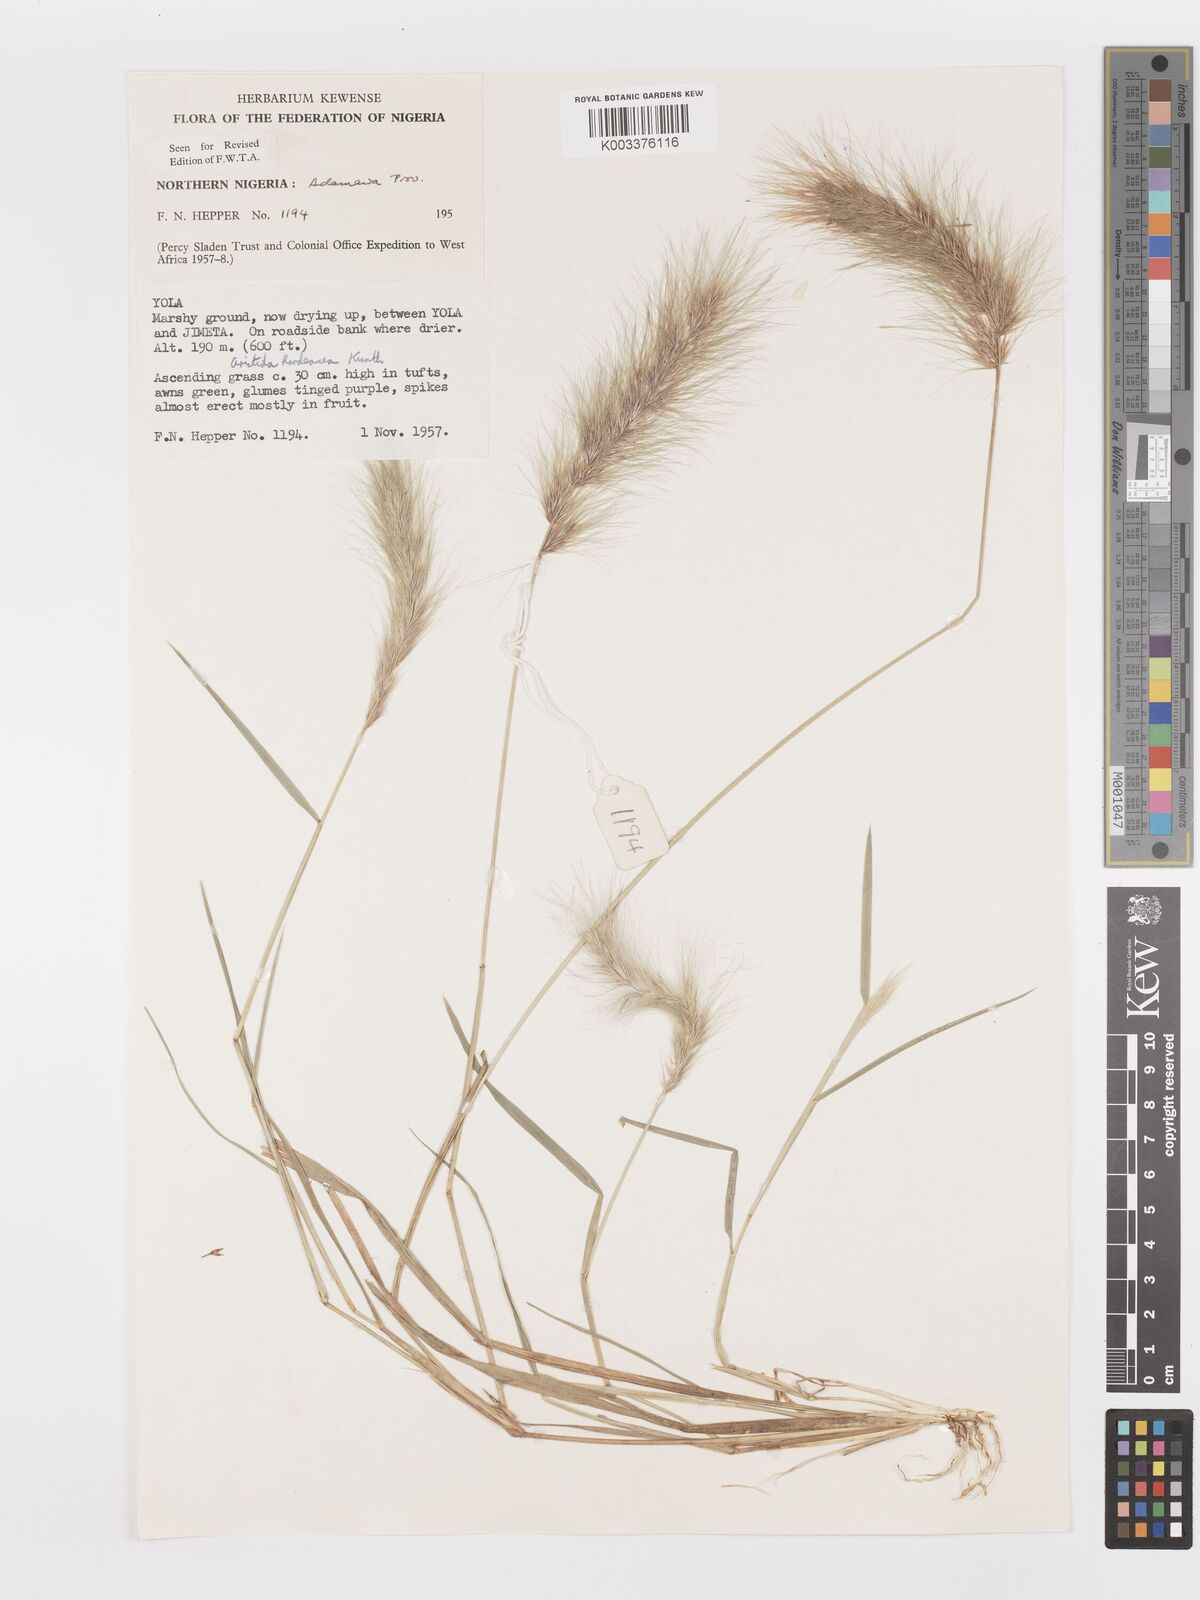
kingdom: Plantae
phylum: Tracheophyta
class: Liliopsida
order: Poales
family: Poaceae
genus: Aristida
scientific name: Aristida hordeacea
